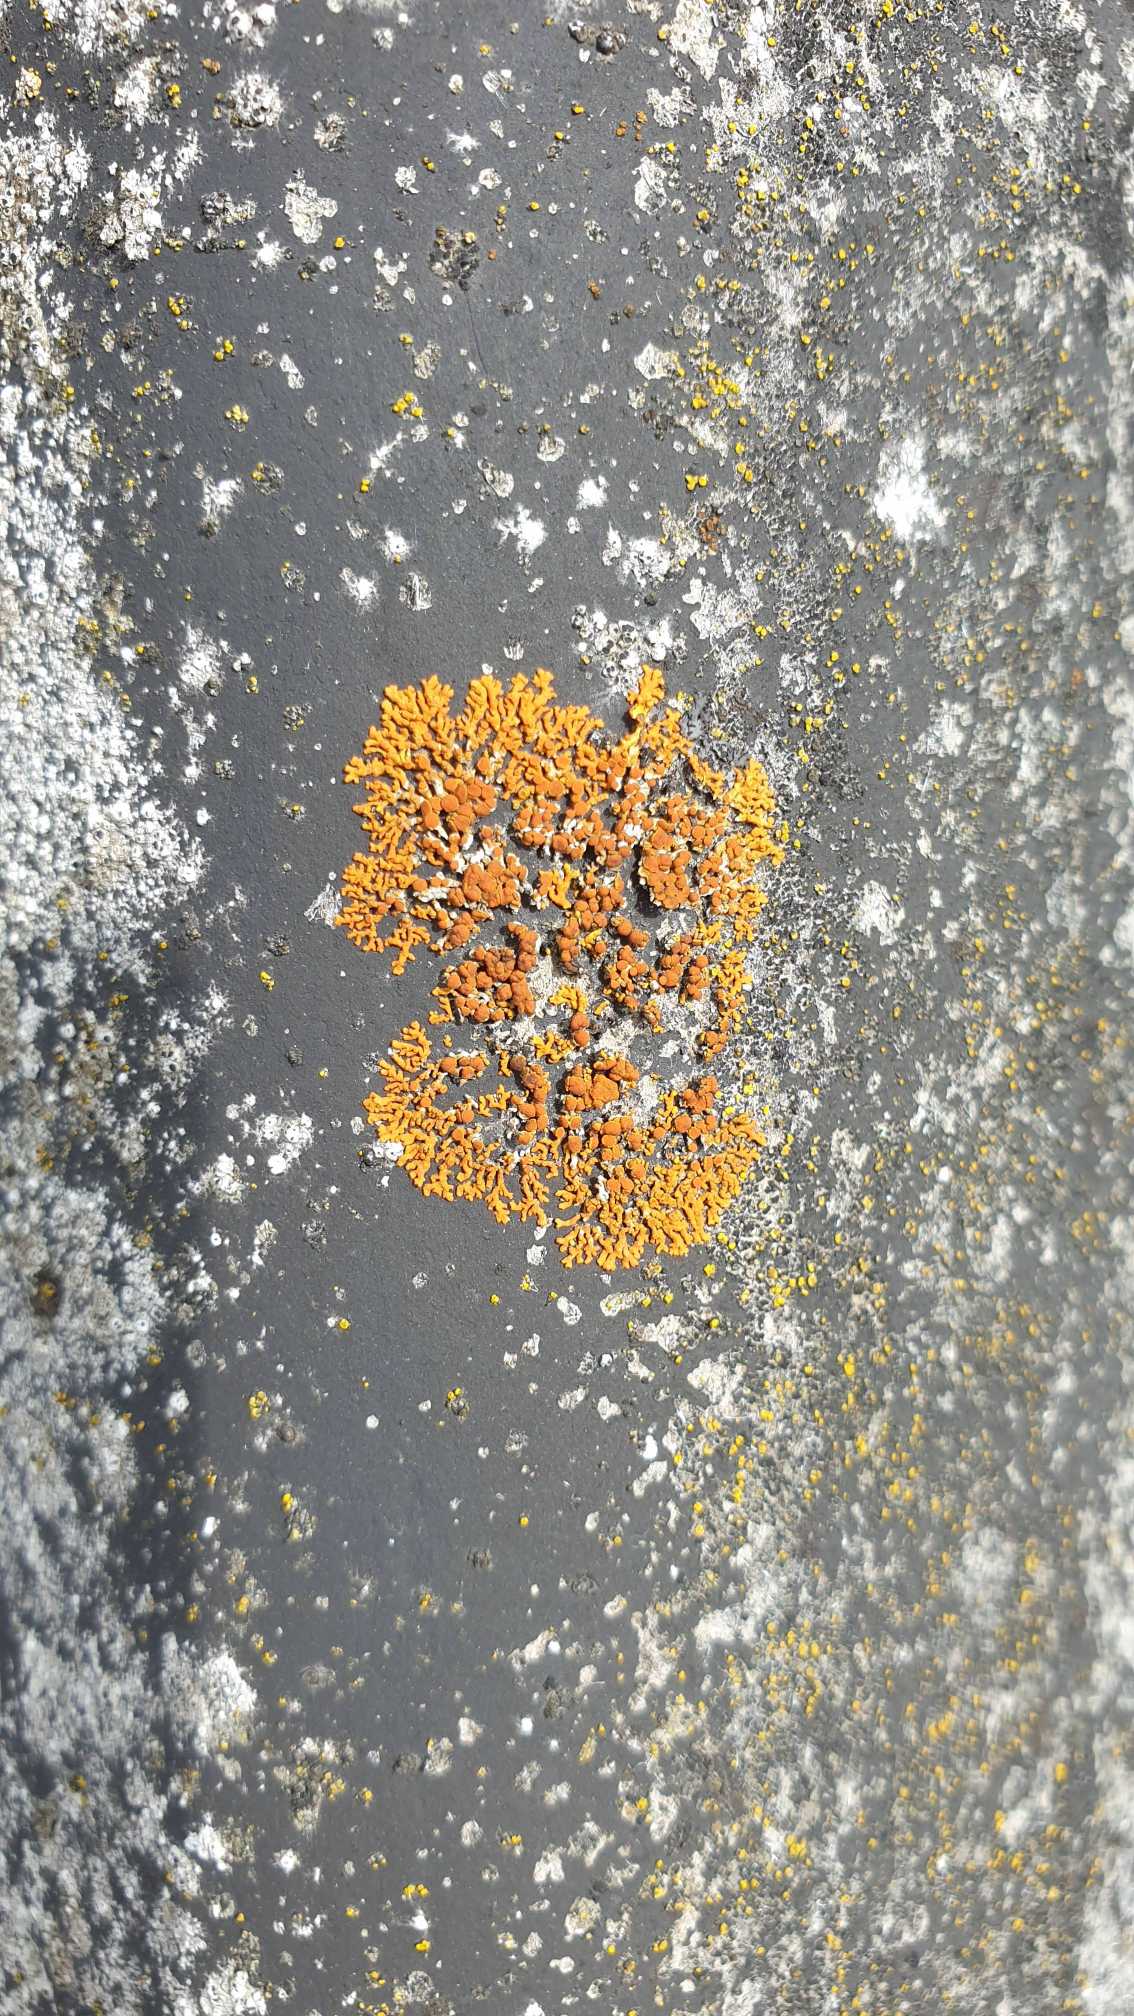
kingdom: Fungi
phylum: Ascomycota
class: Lecanoromycetes
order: Teloschistales
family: Teloschistaceae
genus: Xanthoria
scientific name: Xanthoria elegans
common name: Fjeld-væggelav
